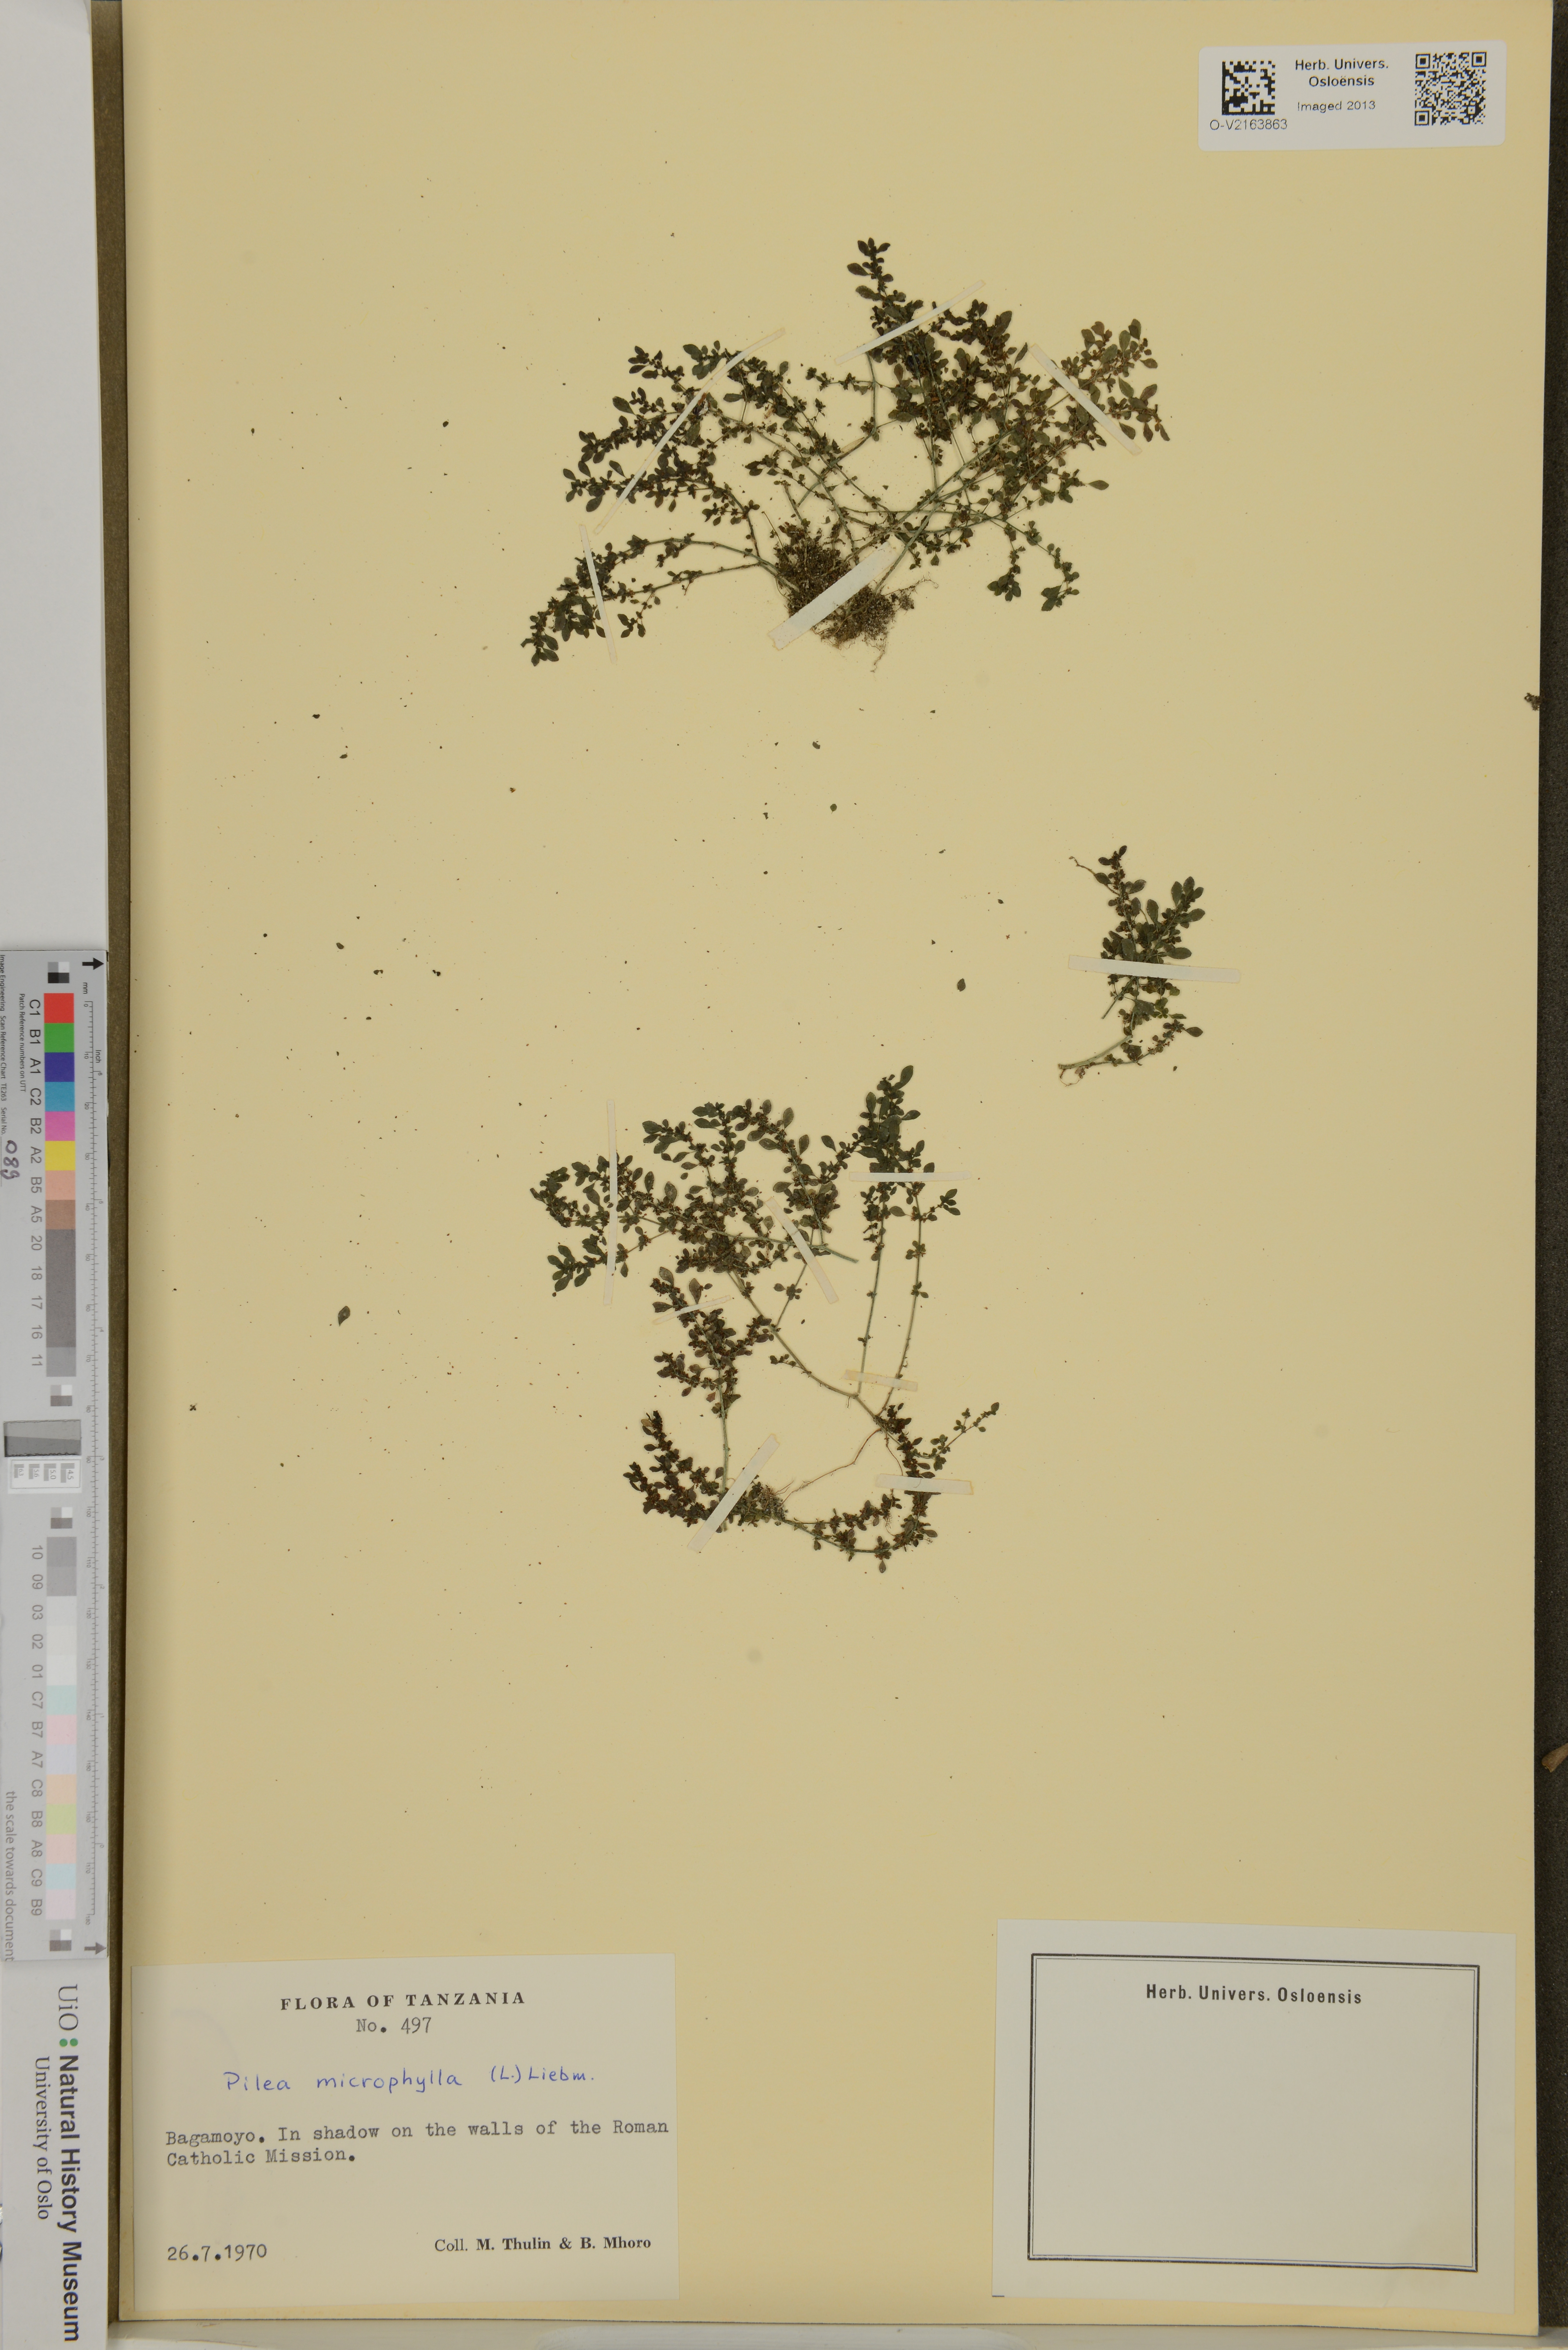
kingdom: Plantae
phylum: Tracheophyta
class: Magnoliopsida
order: Rosales
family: Urticaceae
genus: Pilea
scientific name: Pilea microphylla
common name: Artillery-plant
